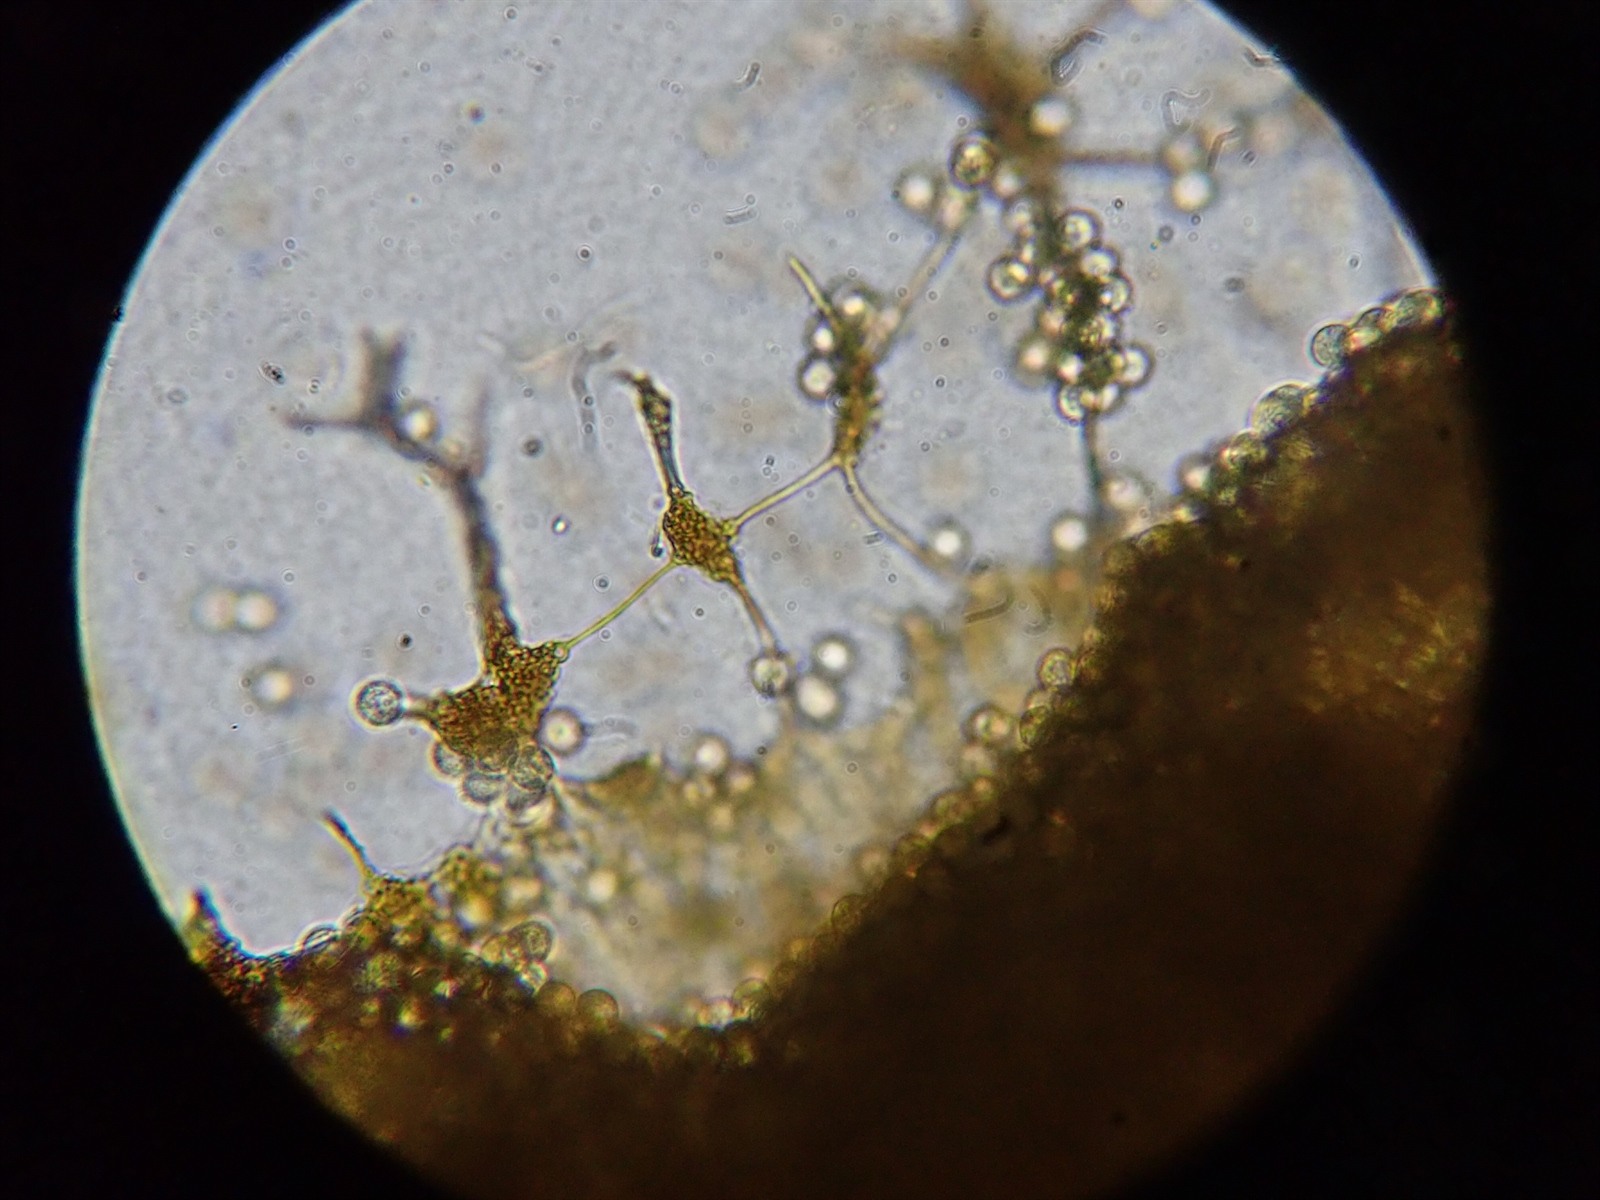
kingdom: Protozoa
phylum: Mycetozoa
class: Myxomycetes
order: Cribrariales
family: Cribrariaceae
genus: Cribraria
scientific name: Cribraria persoonii
